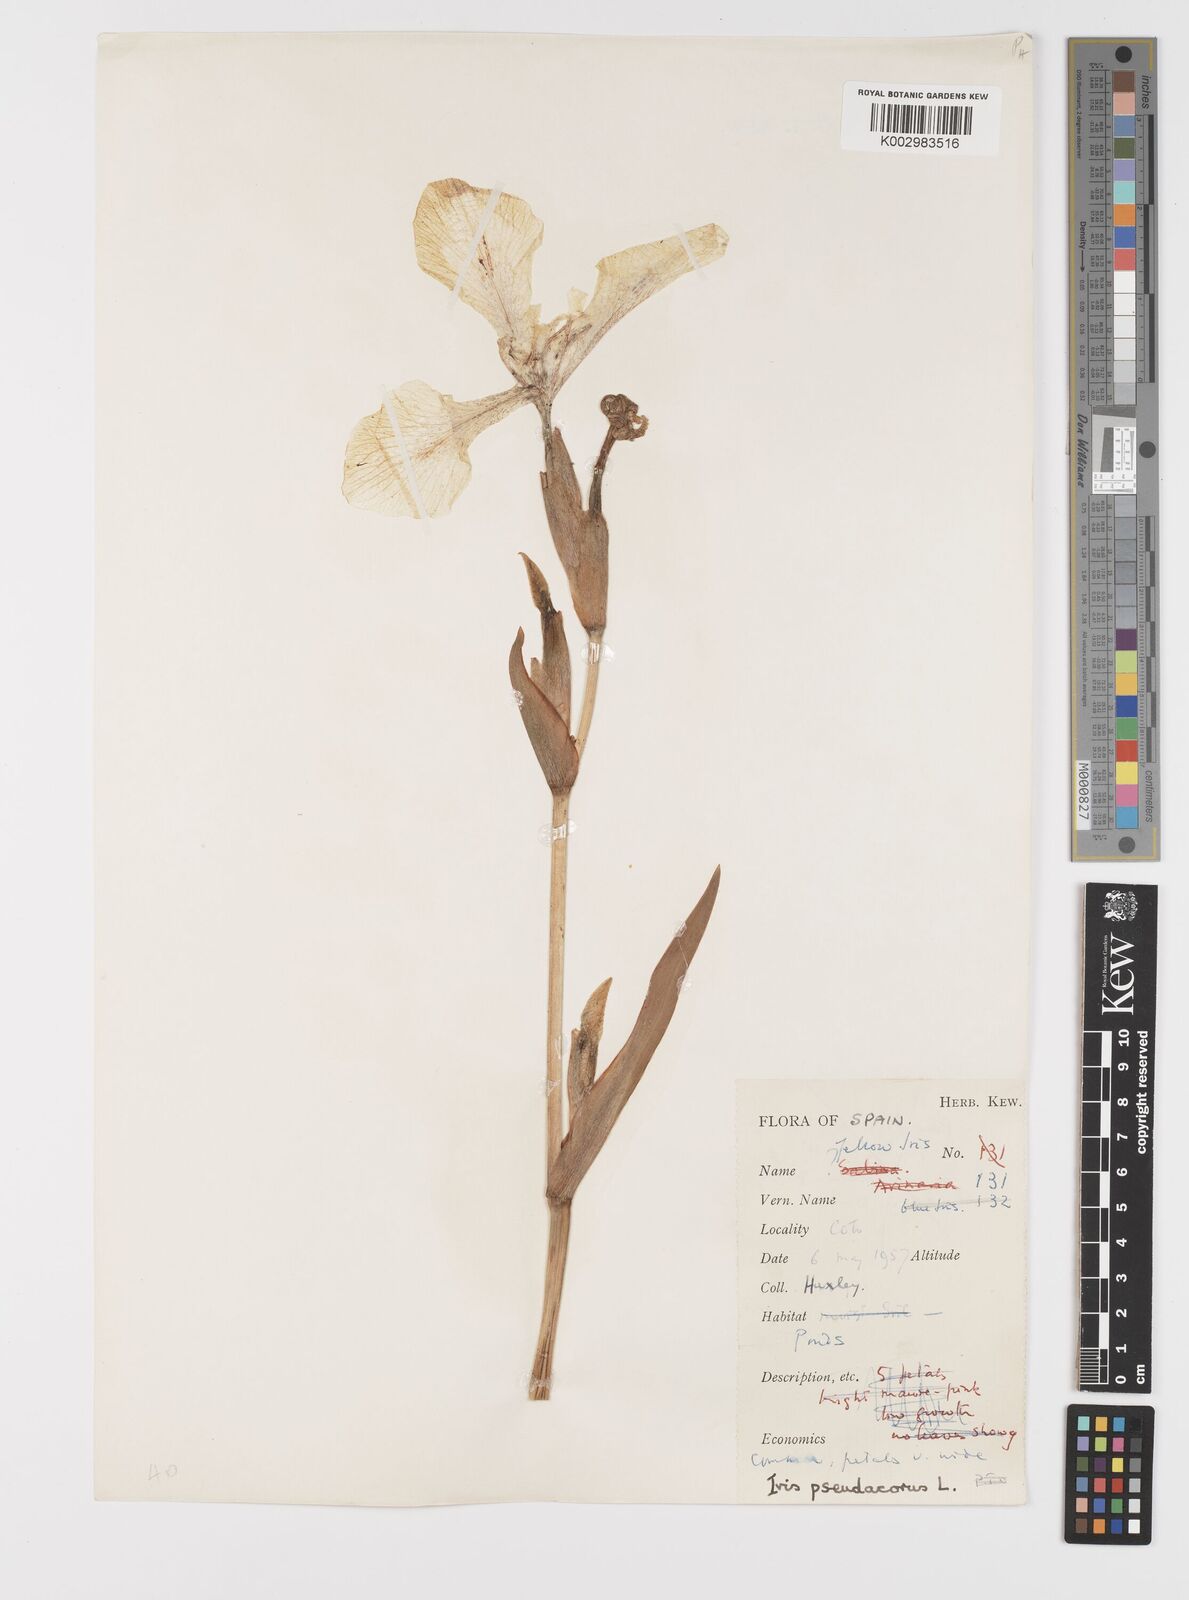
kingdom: Plantae
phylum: Tracheophyta
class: Liliopsida
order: Asparagales
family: Iridaceae
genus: Iris
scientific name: Iris pseudacorus
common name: Yellow flag
